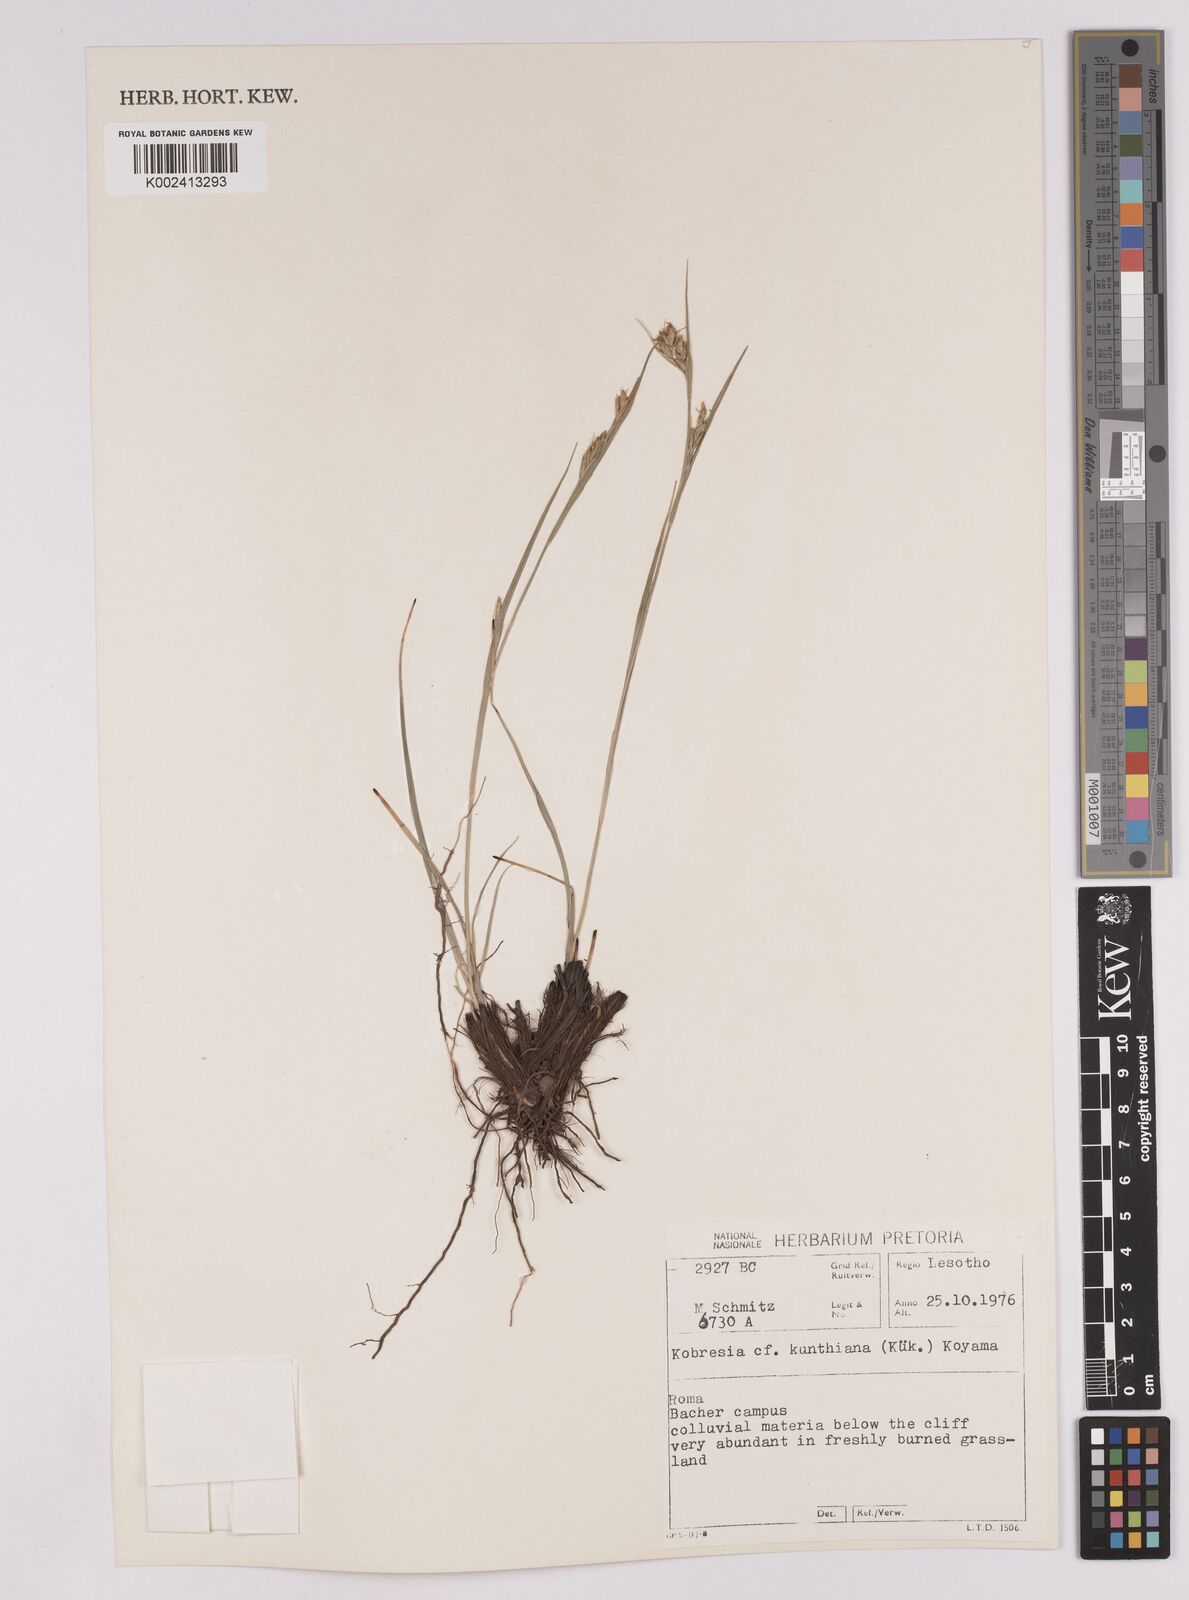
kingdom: Plantae
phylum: Tracheophyta
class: Liliopsida
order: Poales
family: Cyperaceae
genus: Carex
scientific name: Carex
